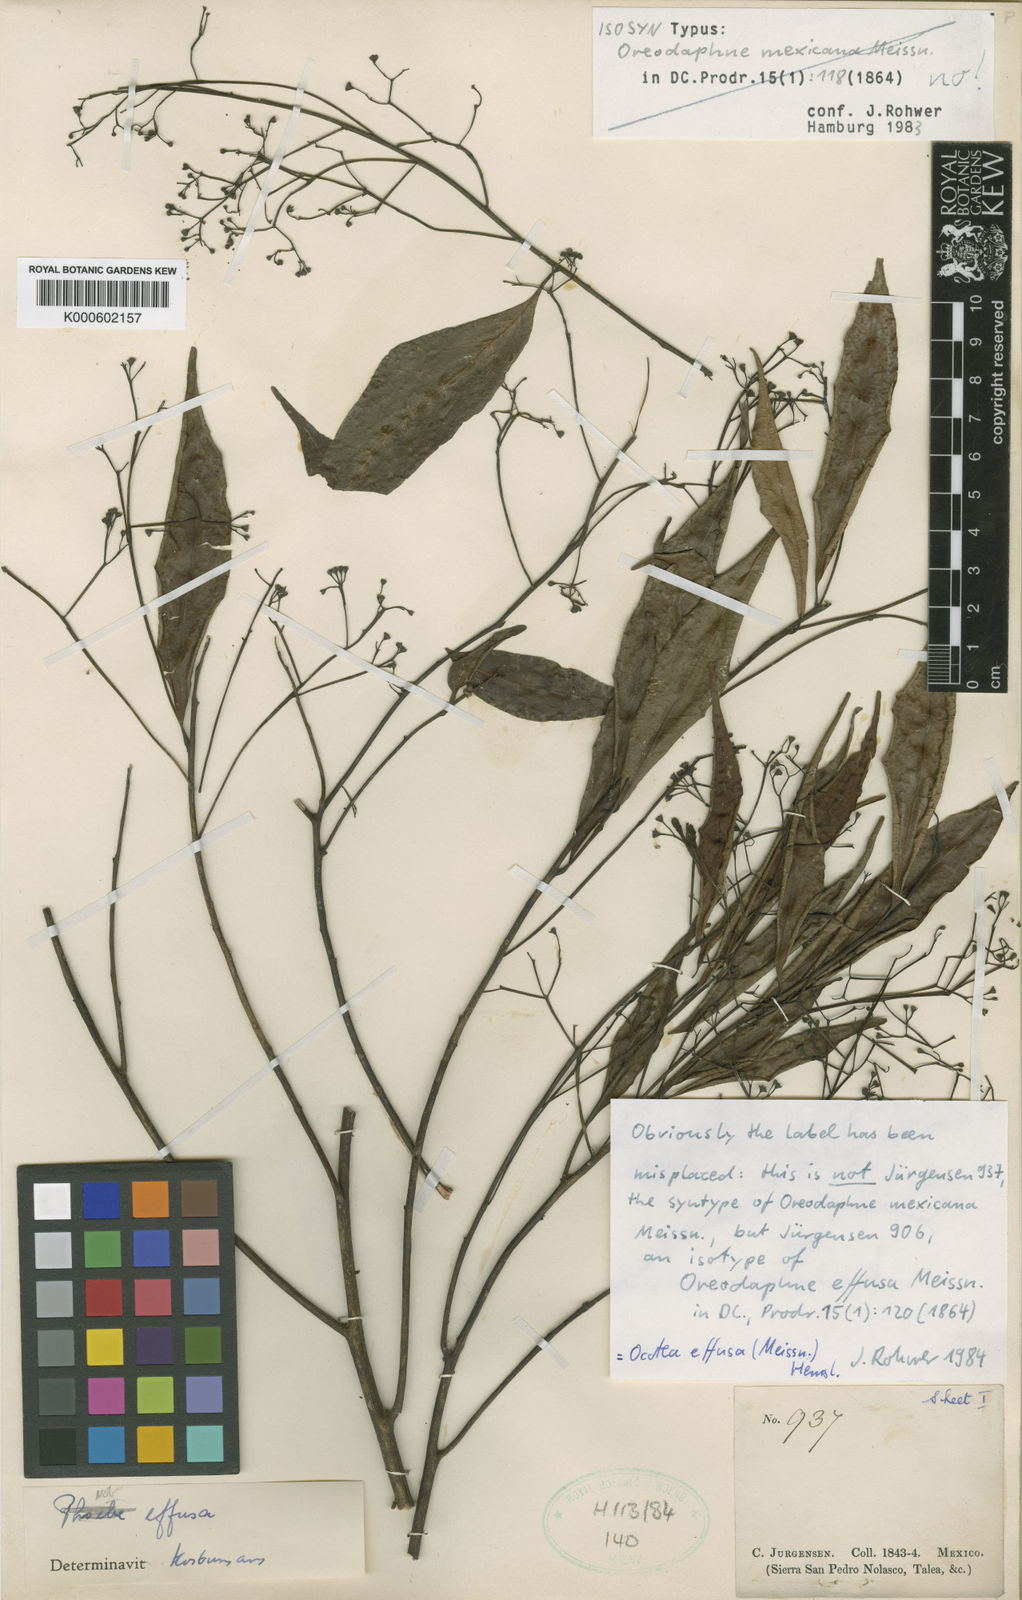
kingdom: Plantae
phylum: Tracheophyta
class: Magnoliopsida
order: Laurales
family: Lauraceae
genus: Ocotea
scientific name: Ocotea effusa
